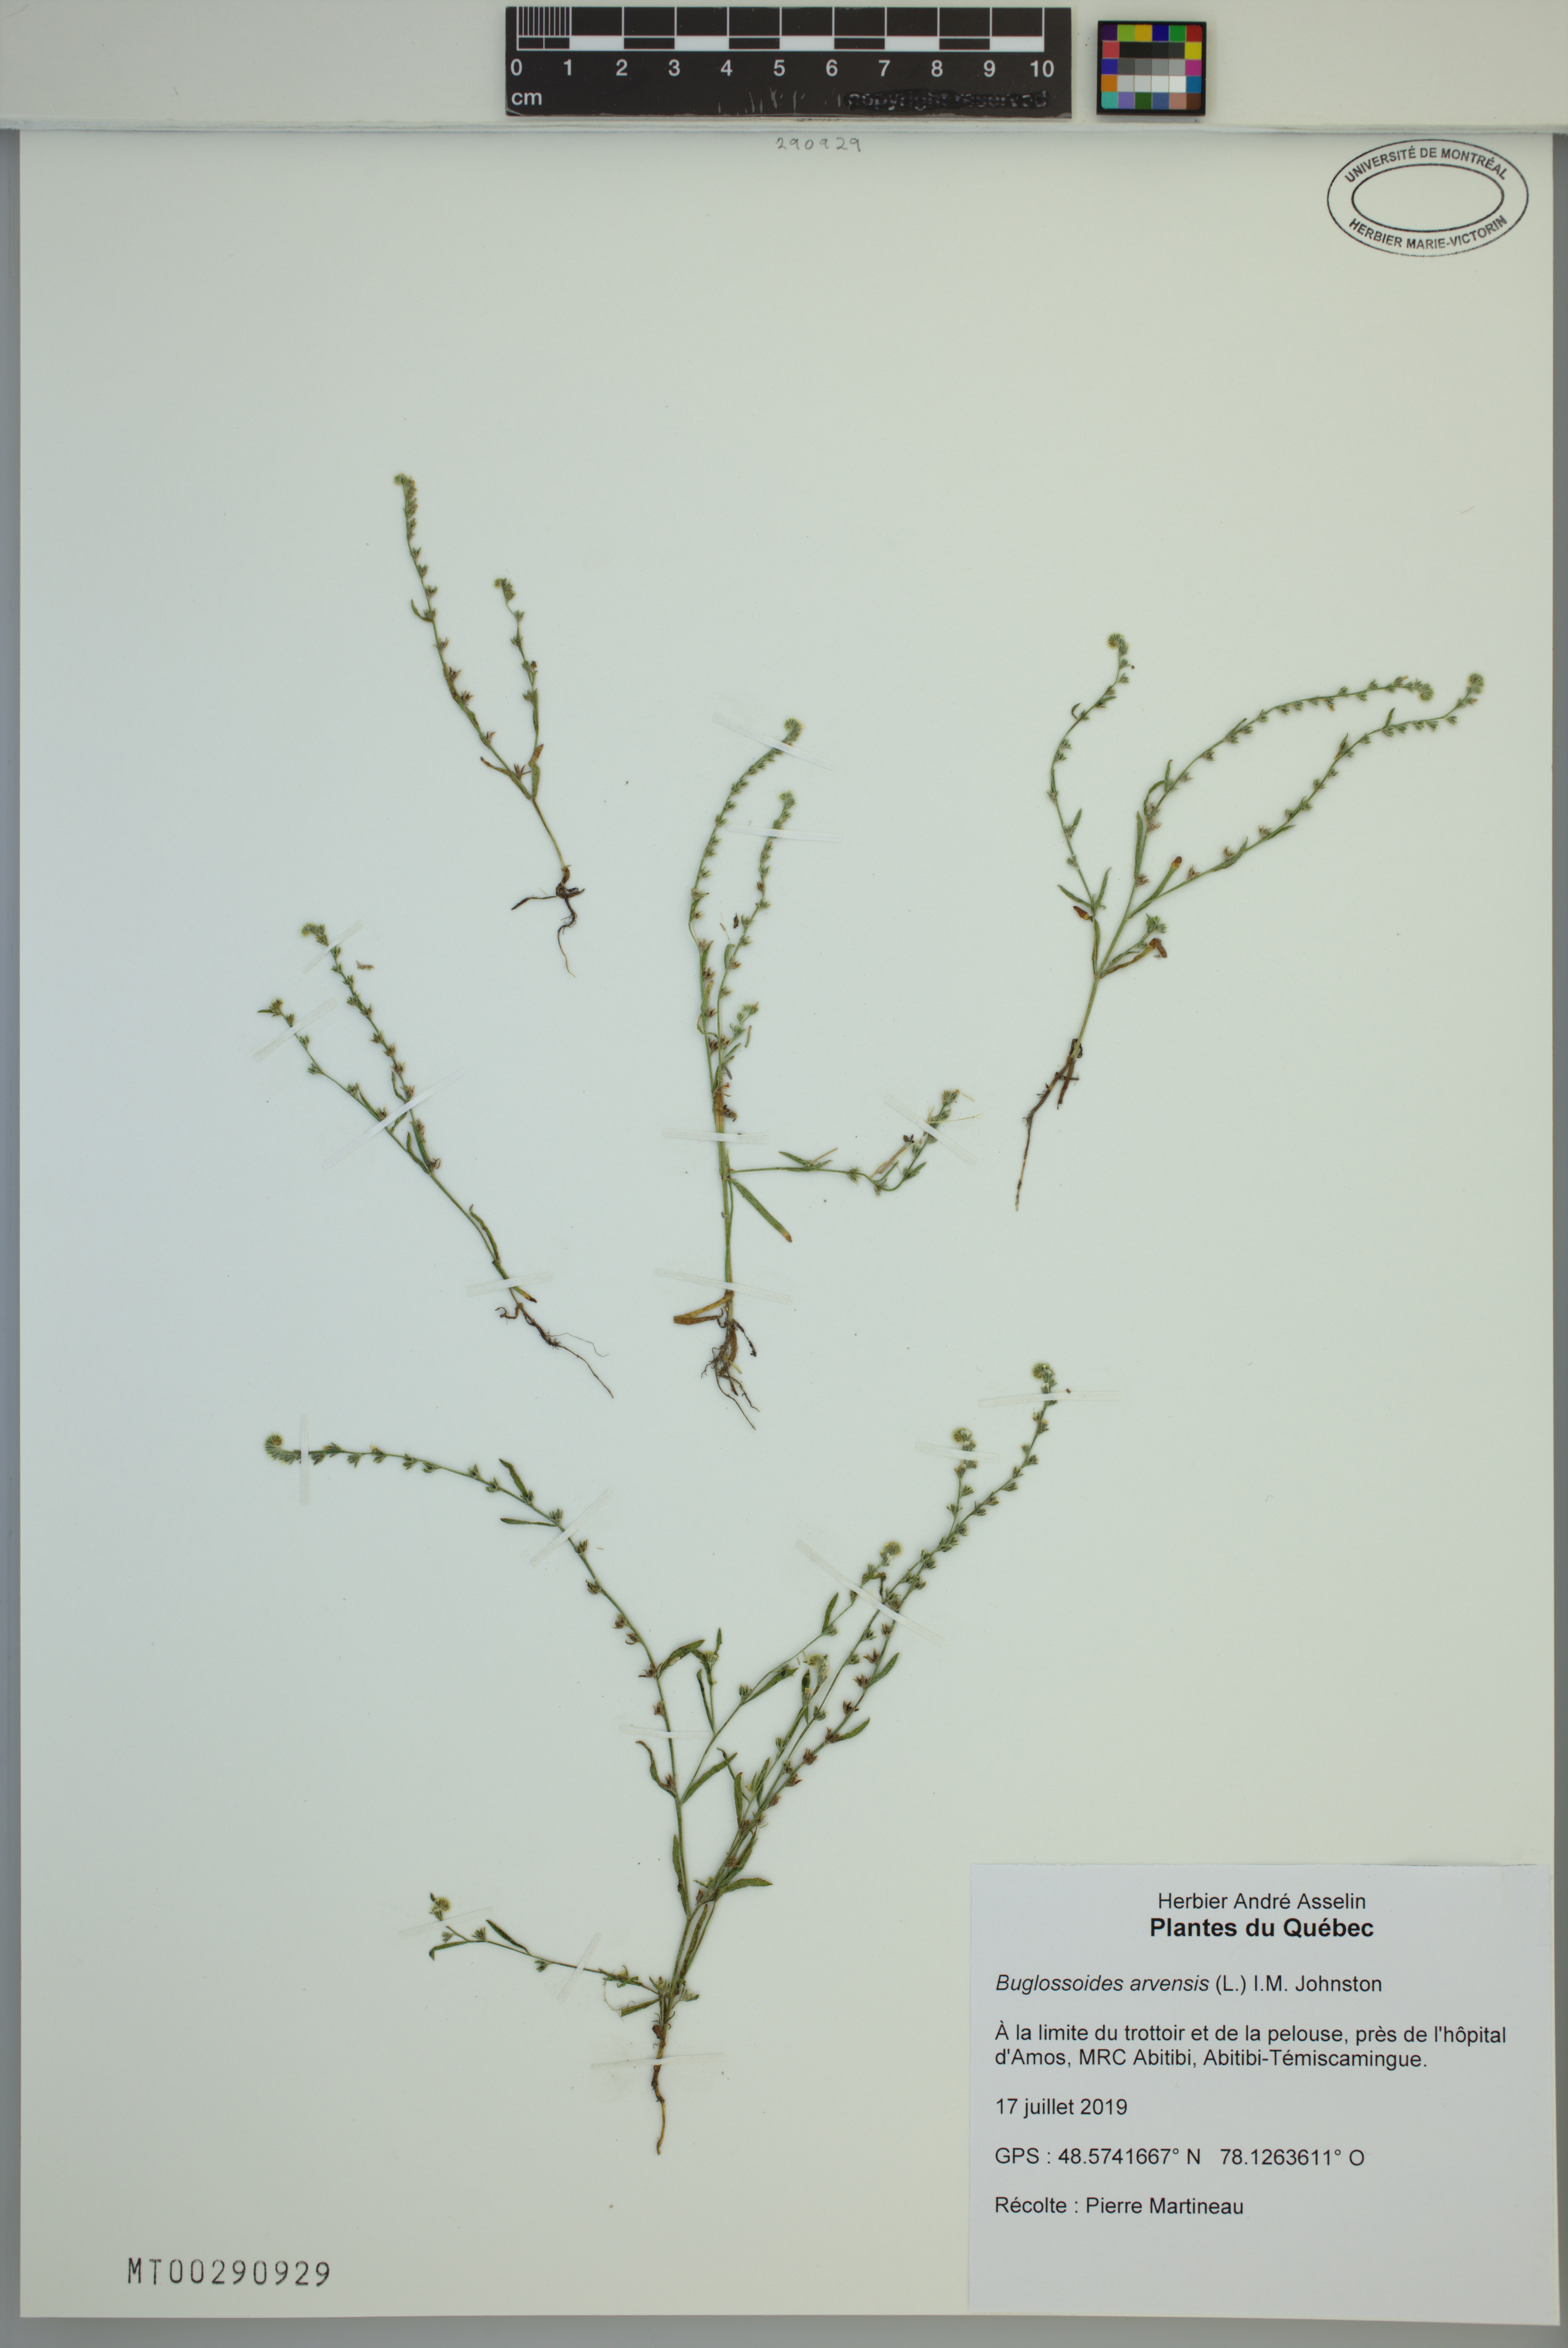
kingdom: Plantae
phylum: Tracheophyta
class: Magnoliopsida
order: Boraginales
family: Boraginaceae
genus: Buglossoides
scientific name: Buglossoides arvensis
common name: Corn gromwell
